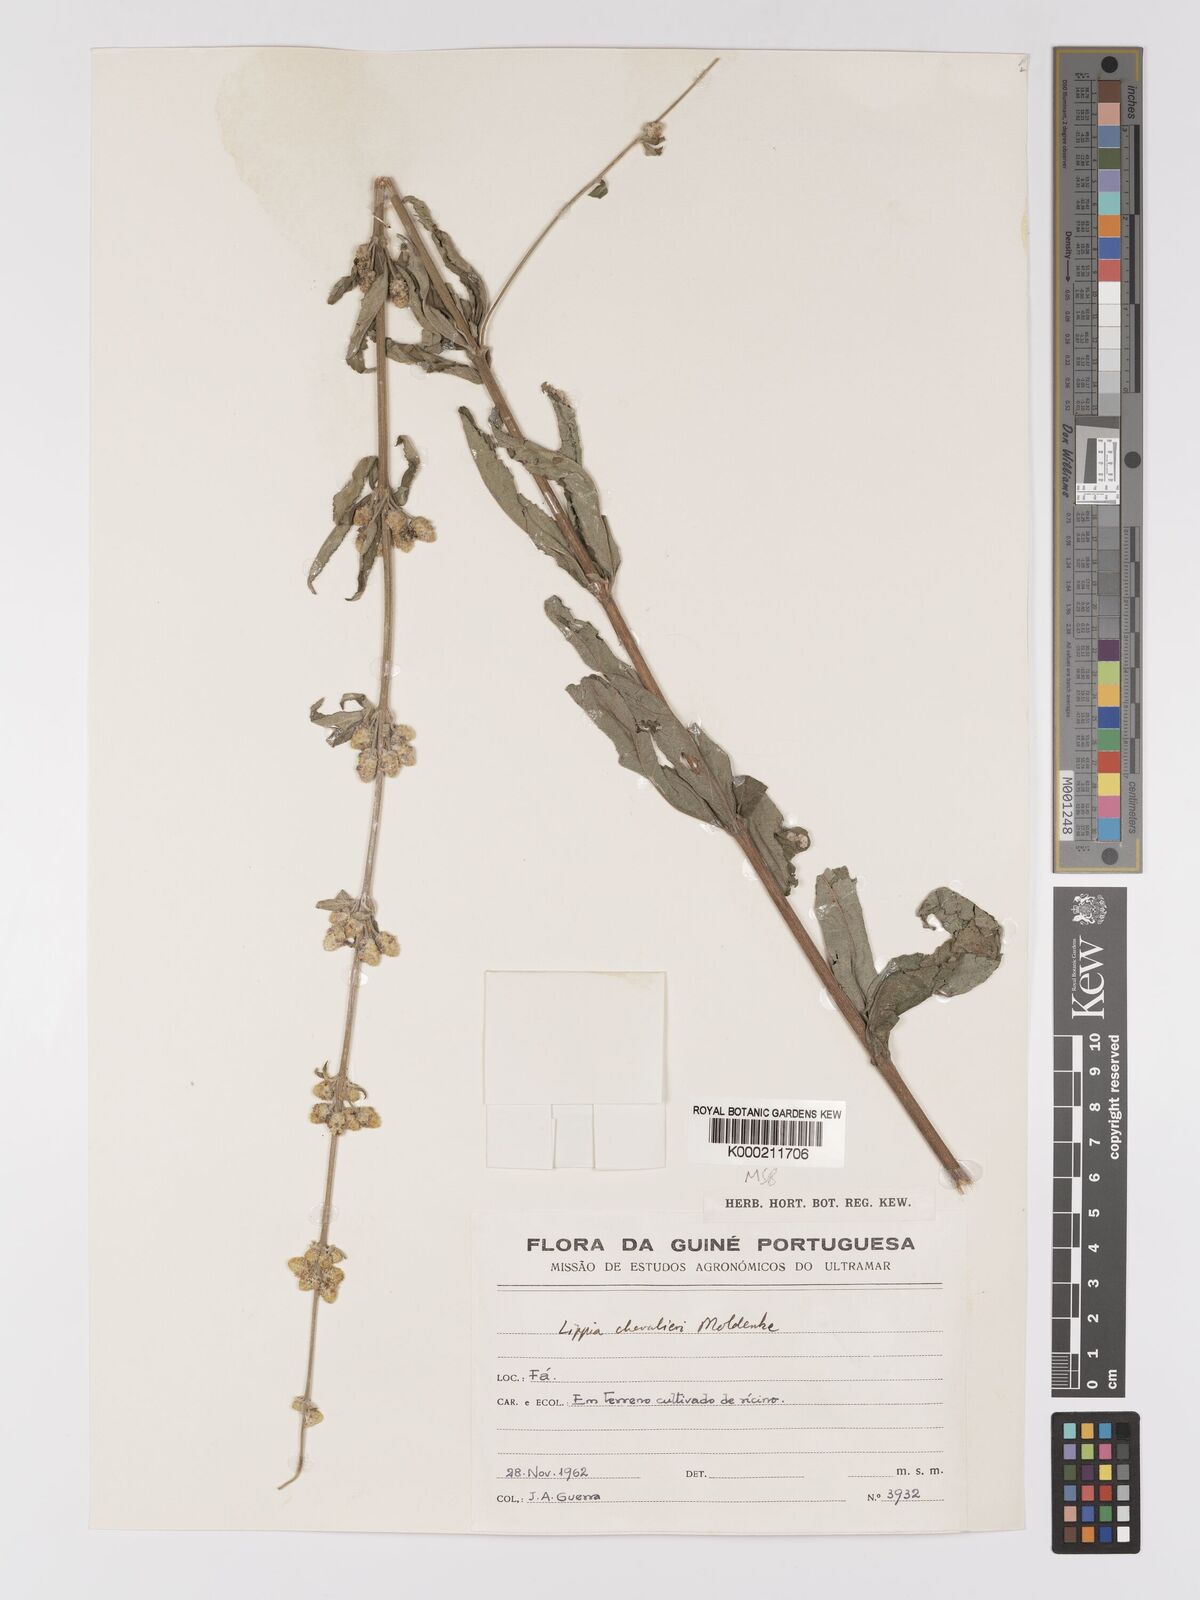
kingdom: Plantae
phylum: Tracheophyta
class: Magnoliopsida
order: Lamiales
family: Verbenaceae
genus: Lippia
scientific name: Lippia chevalieri
